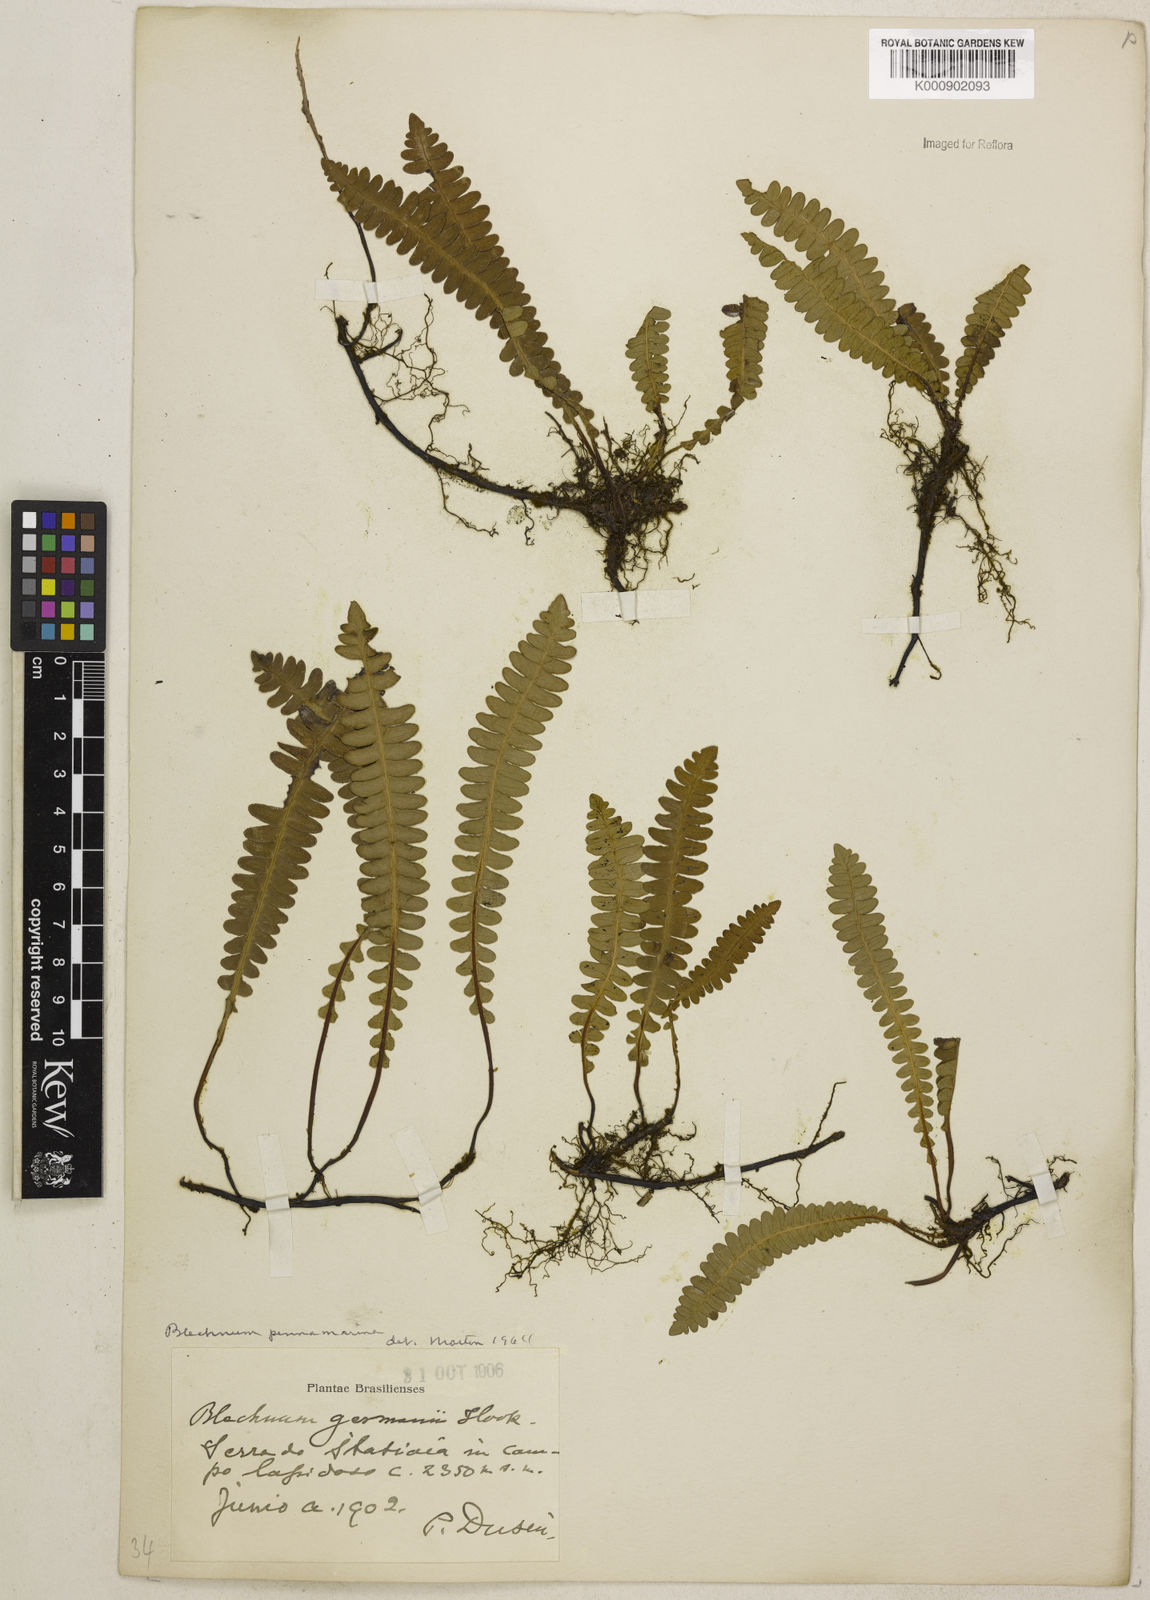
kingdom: Plantae
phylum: Tracheophyta
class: Polypodiopsida
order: Polypodiales
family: Blechnaceae
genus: Austroblechnum
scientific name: Austroblechnum penna-marina
